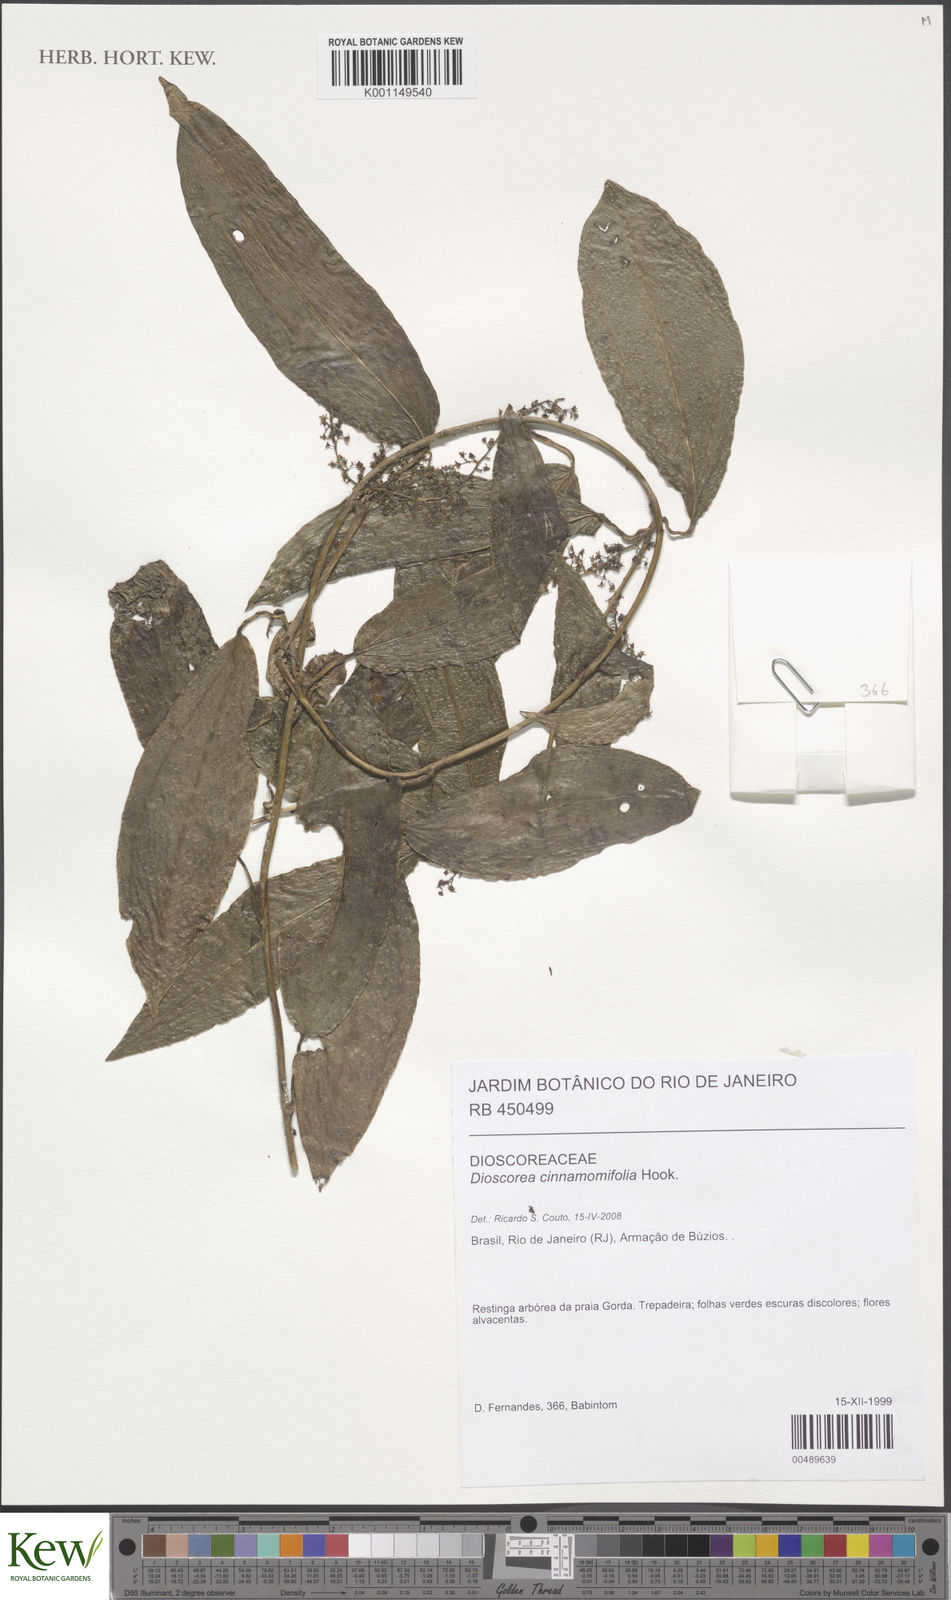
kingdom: Plantae
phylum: Tracheophyta
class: Liliopsida
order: Dioscoreales
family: Dioscoreaceae
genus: Dioscorea
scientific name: Dioscorea cinnamomifolia
